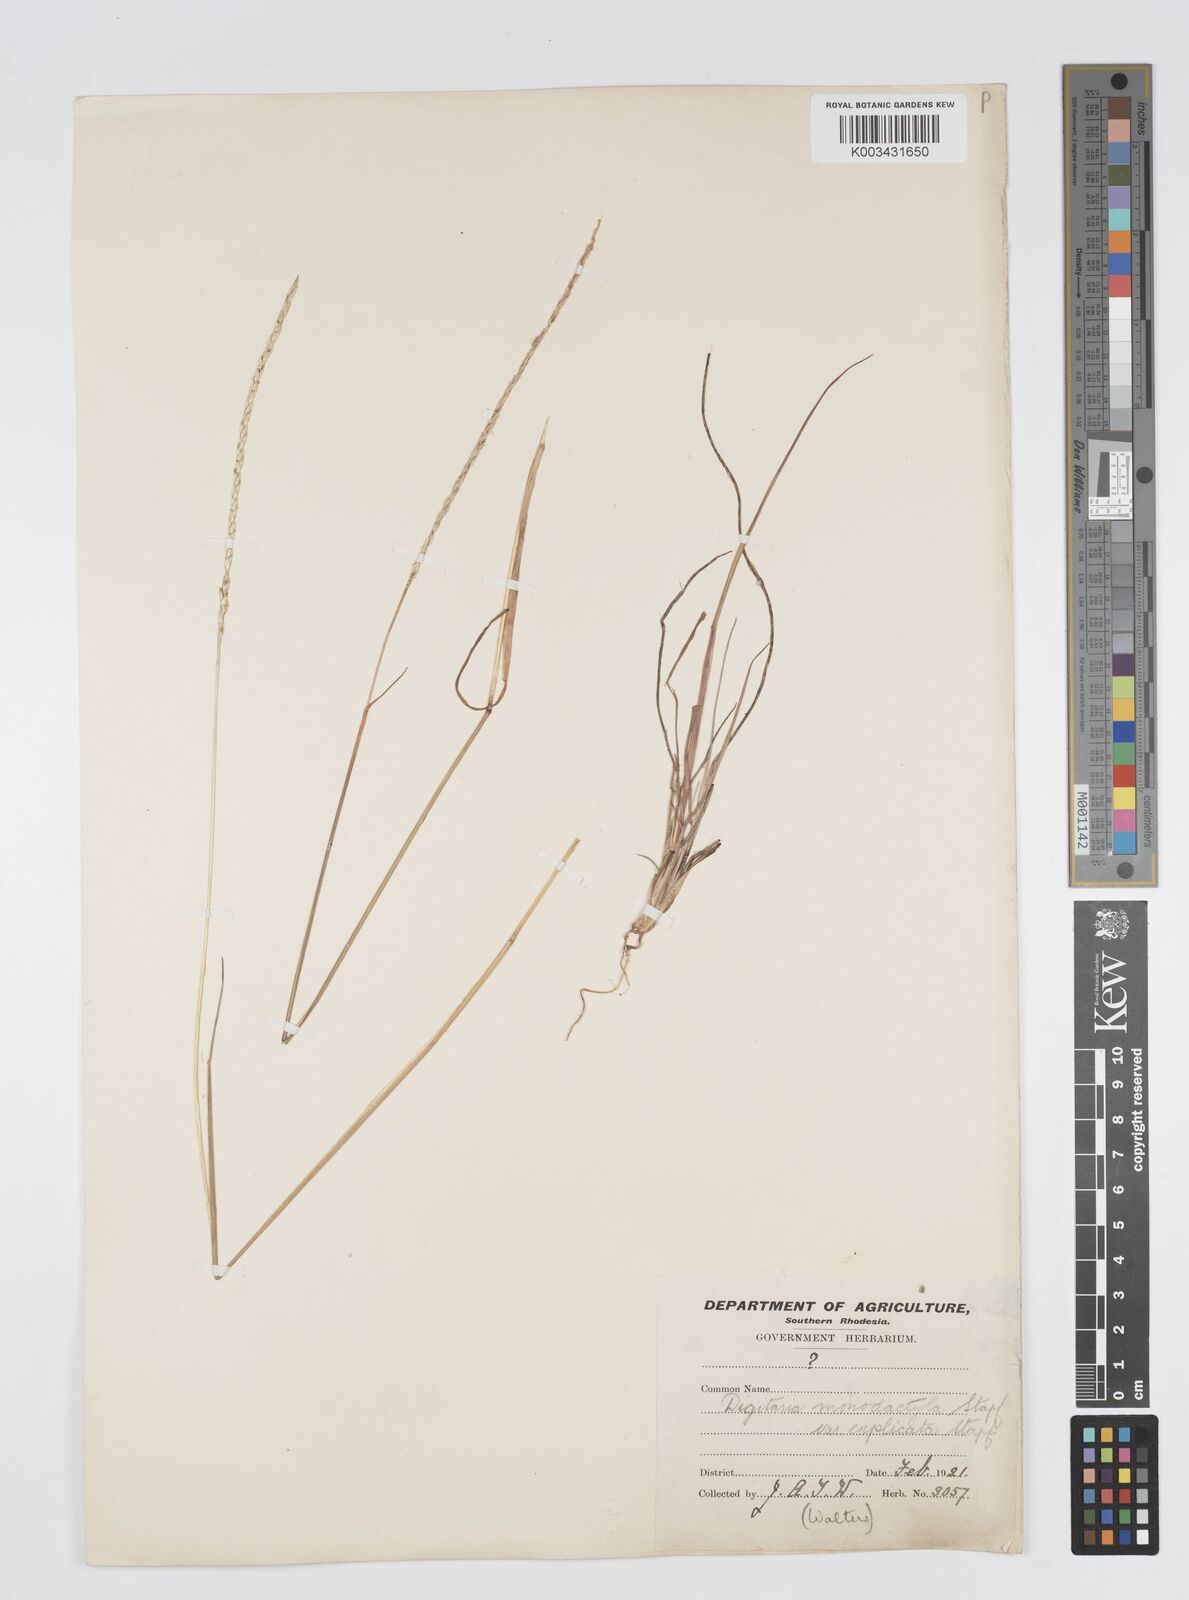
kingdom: Plantae
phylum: Tracheophyta
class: Liliopsida
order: Poales
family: Poaceae
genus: Digitaria
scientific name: Digitaria monodactyla
